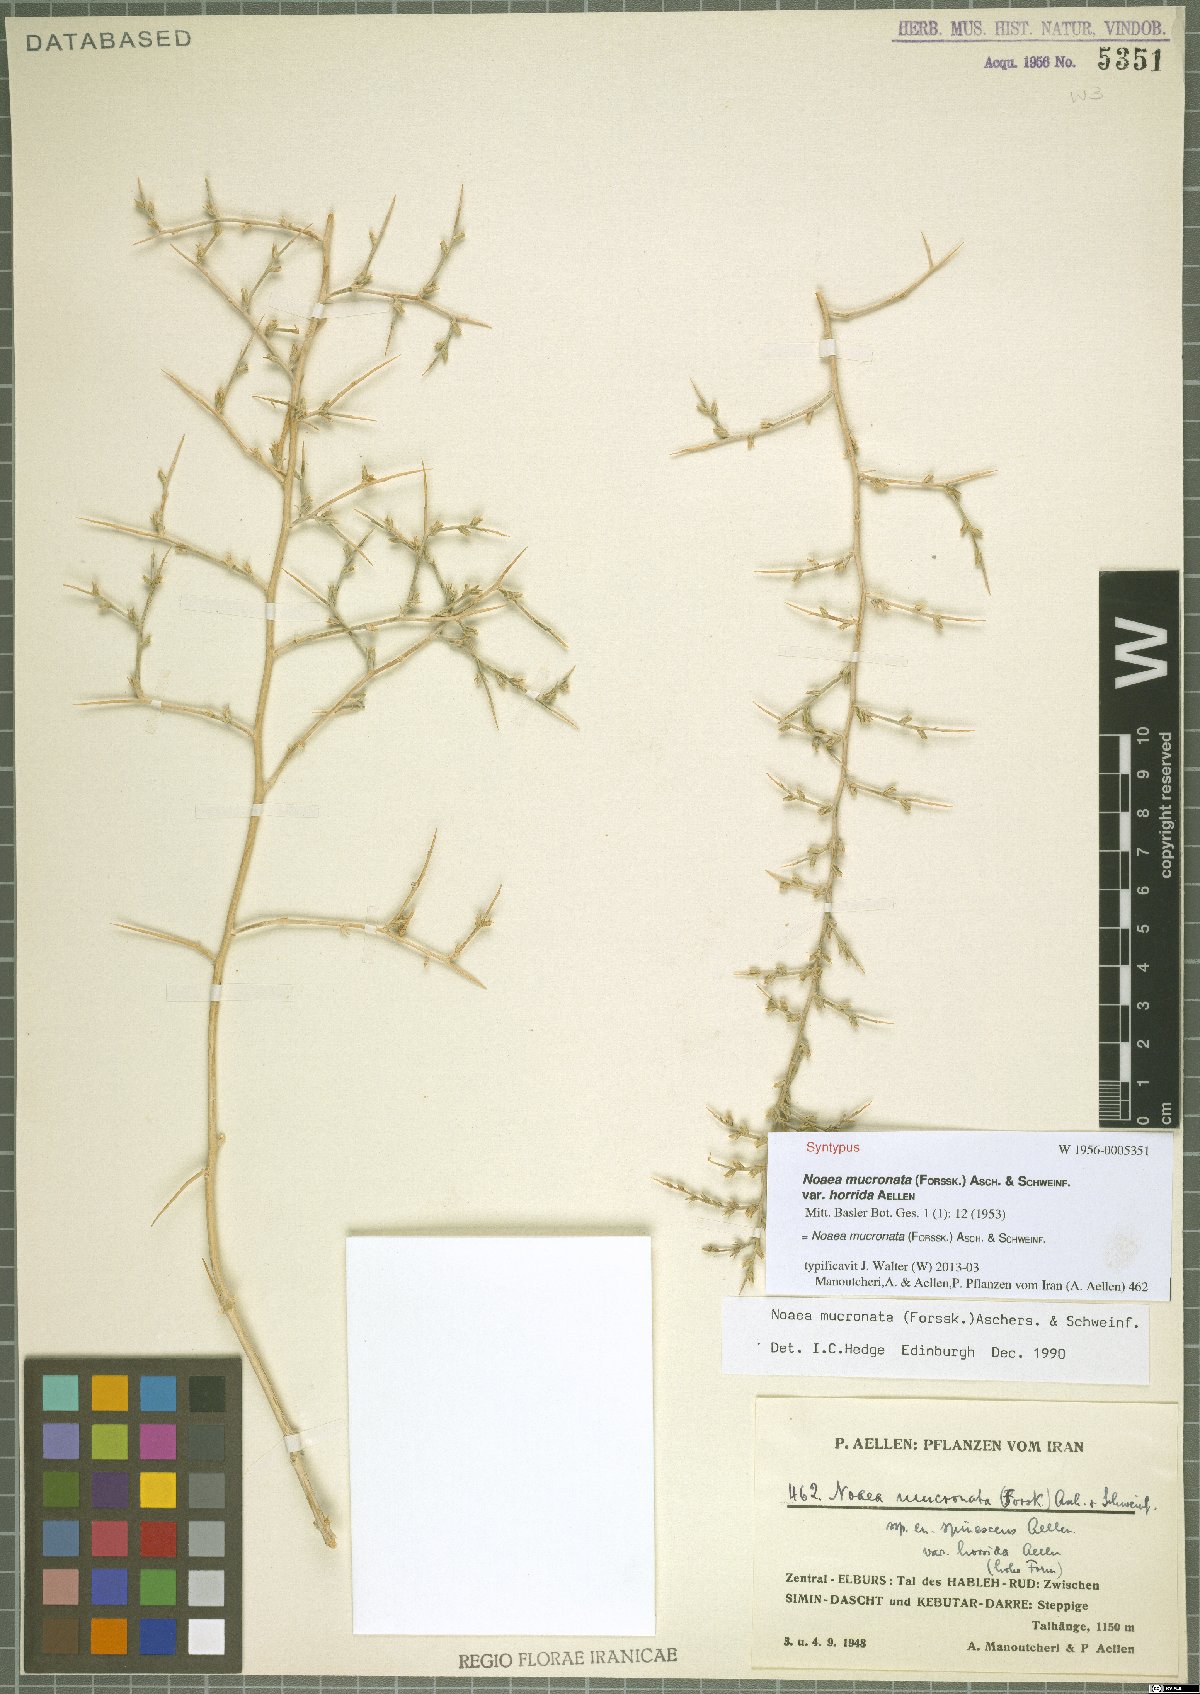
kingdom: Plantae
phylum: Tracheophyta
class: Magnoliopsida
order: Caryophyllales
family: Amaranthaceae
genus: Noaea
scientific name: Noaea mucronata
